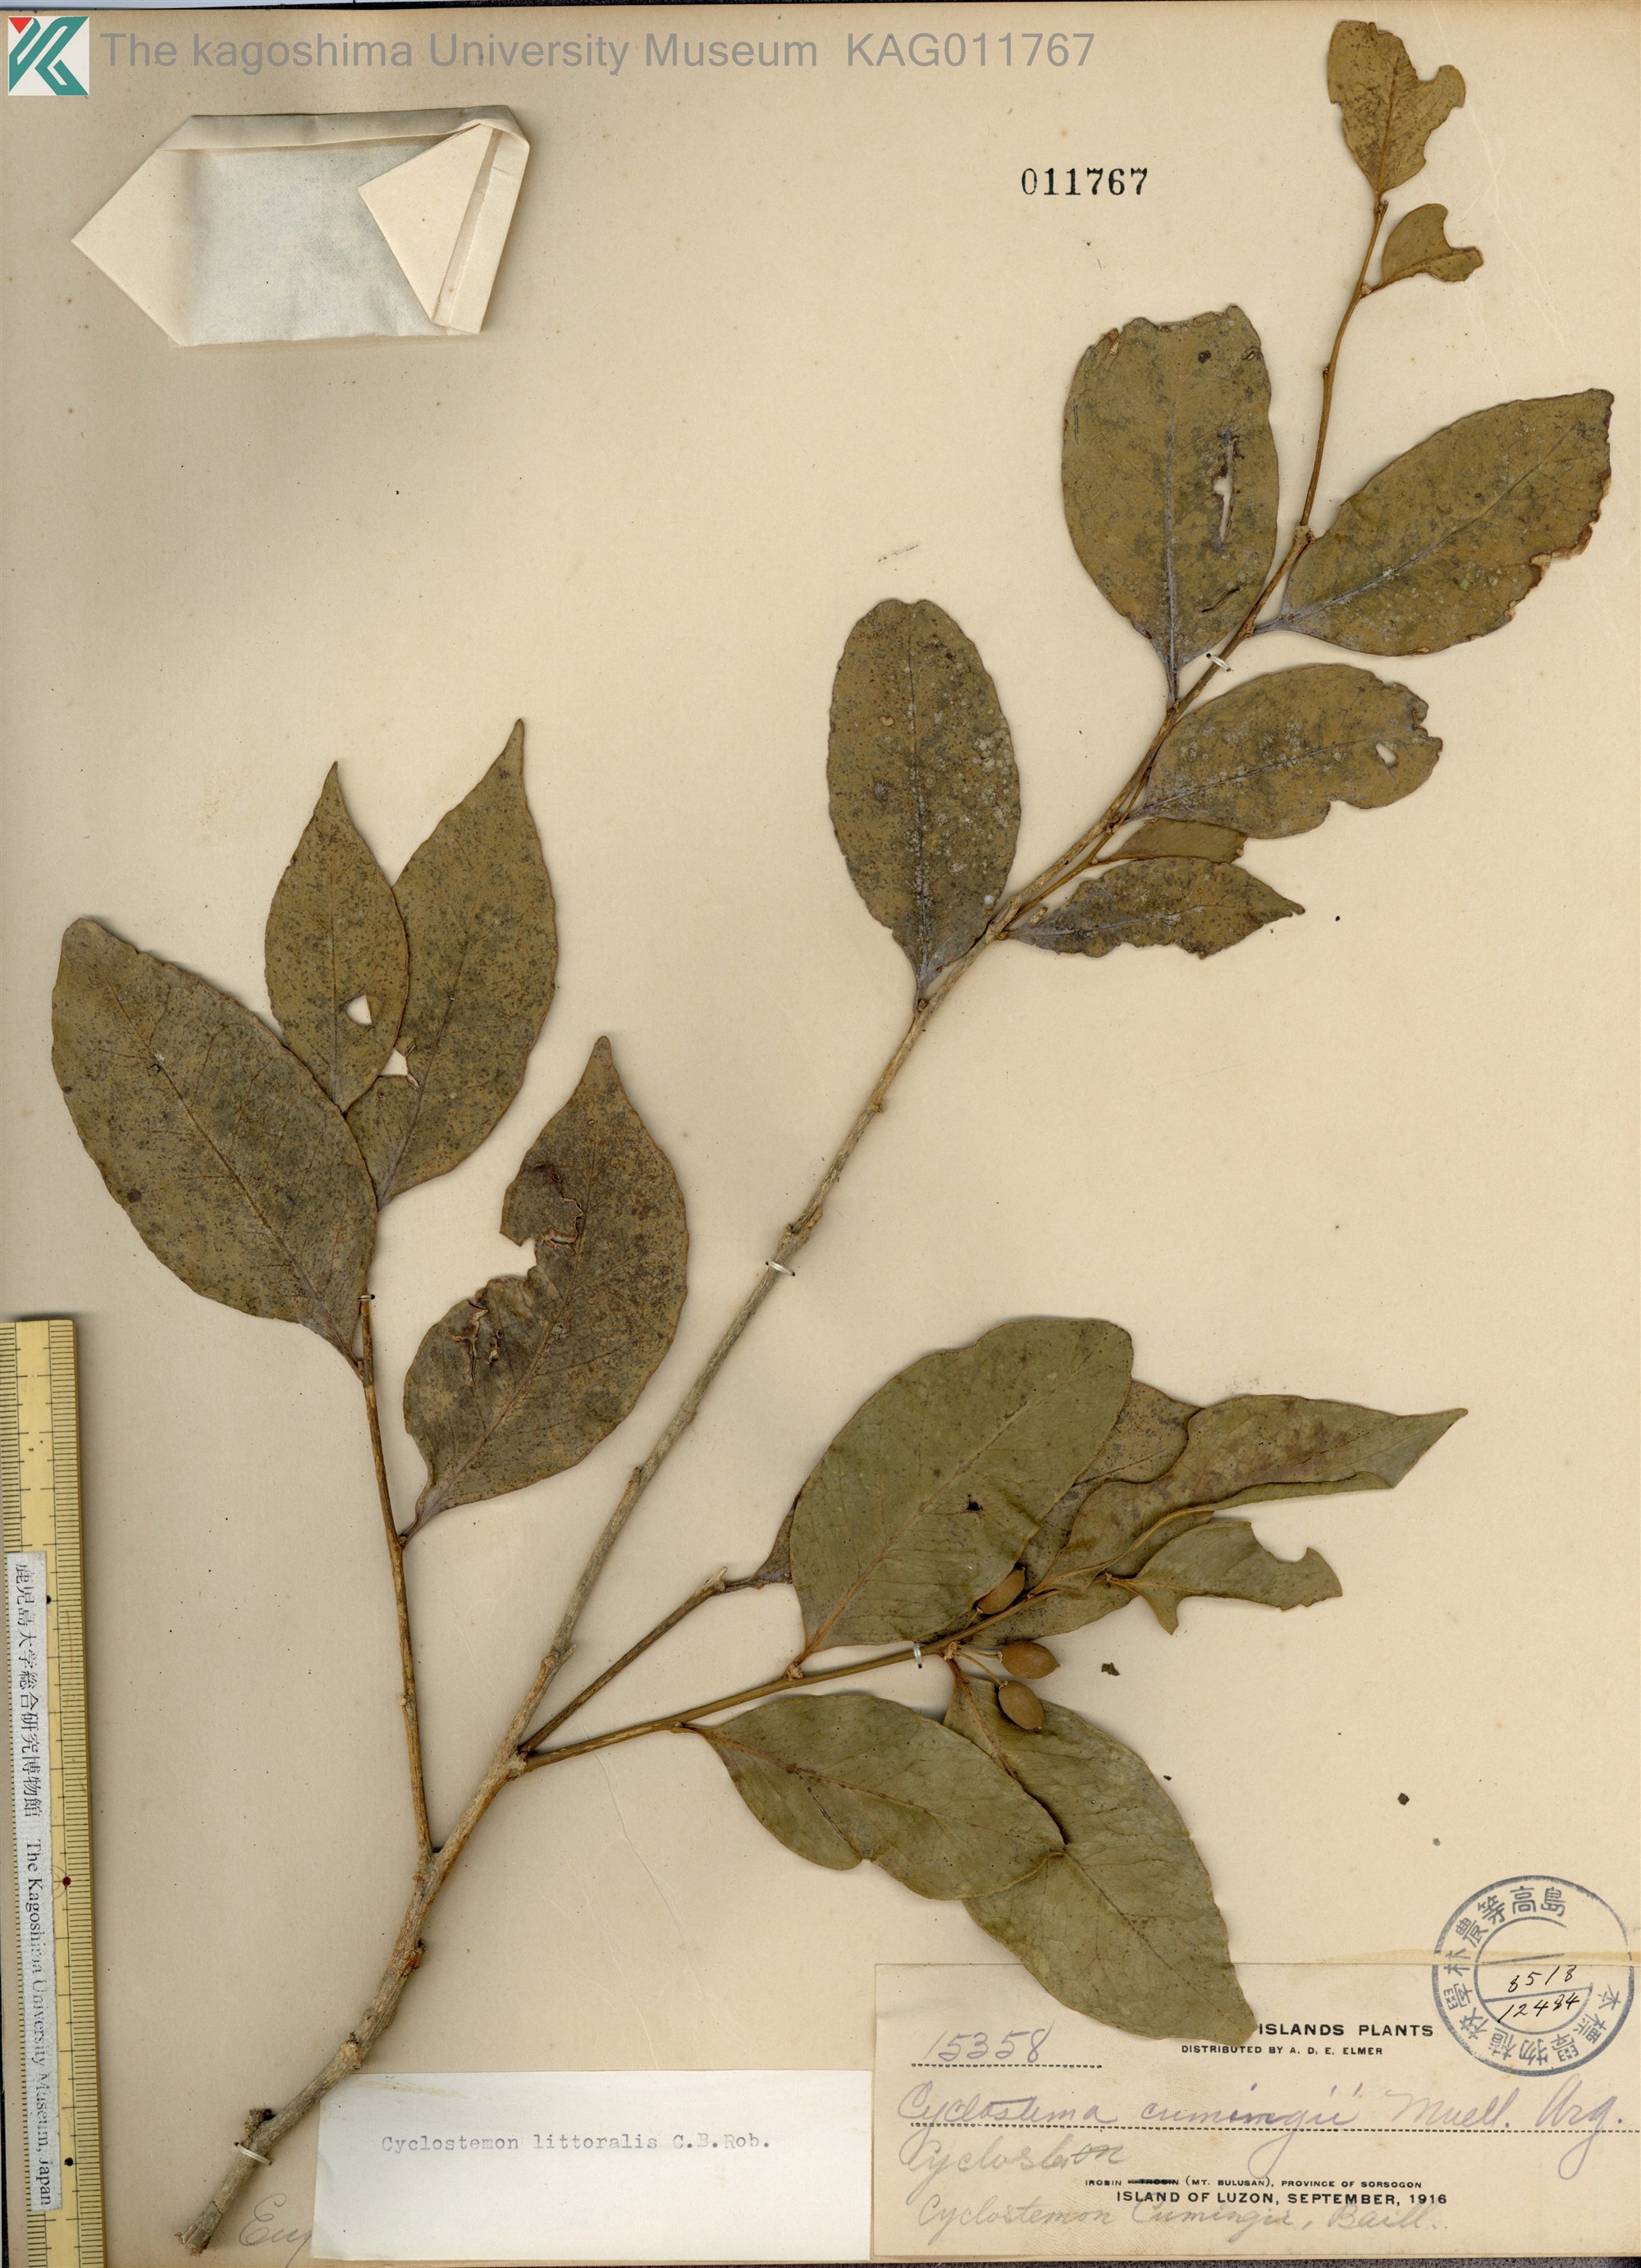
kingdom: Plantae
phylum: Tracheophyta
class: Magnoliopsida
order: Malpighiales
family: Putranjivaceae
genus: Drypetes
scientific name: Drypetes
